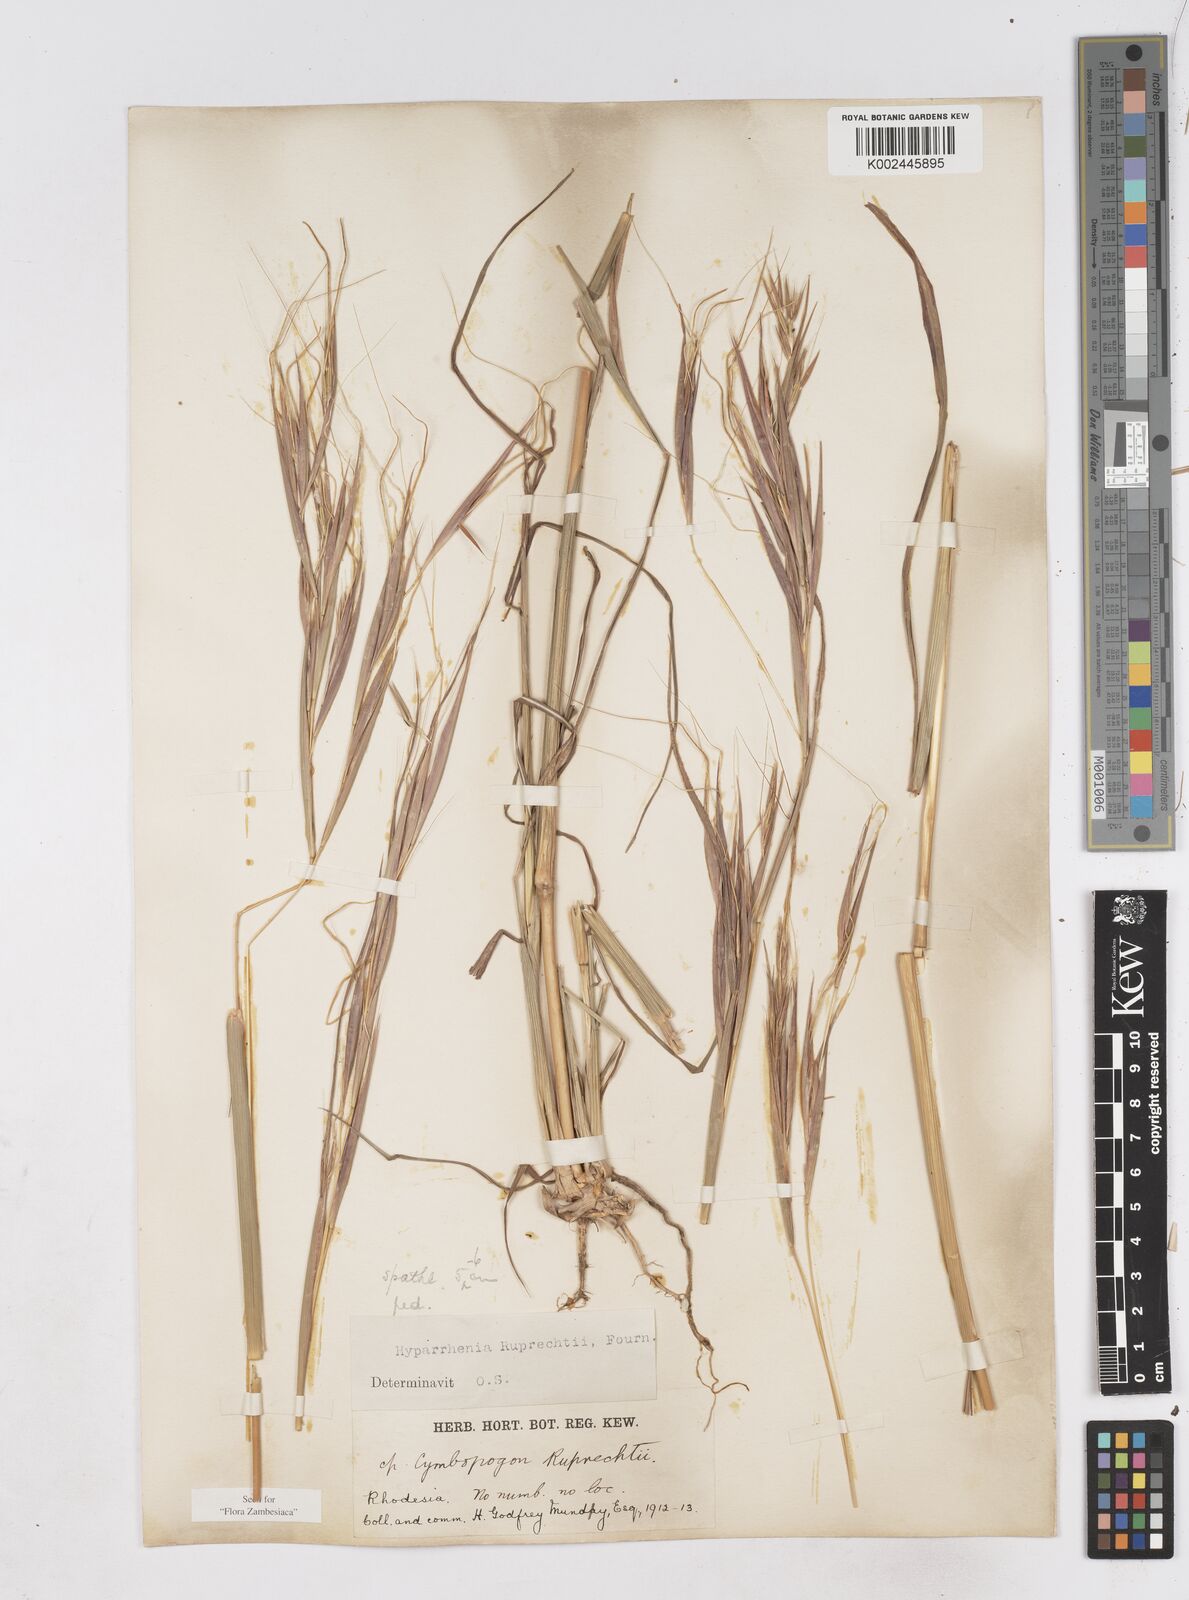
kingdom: Plantae
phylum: Tracheophyta
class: Liliopsida
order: Poales
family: Poaceae
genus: Hyperthelia
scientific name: Hyperthelia dissoluta
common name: Yellow thatching grass
